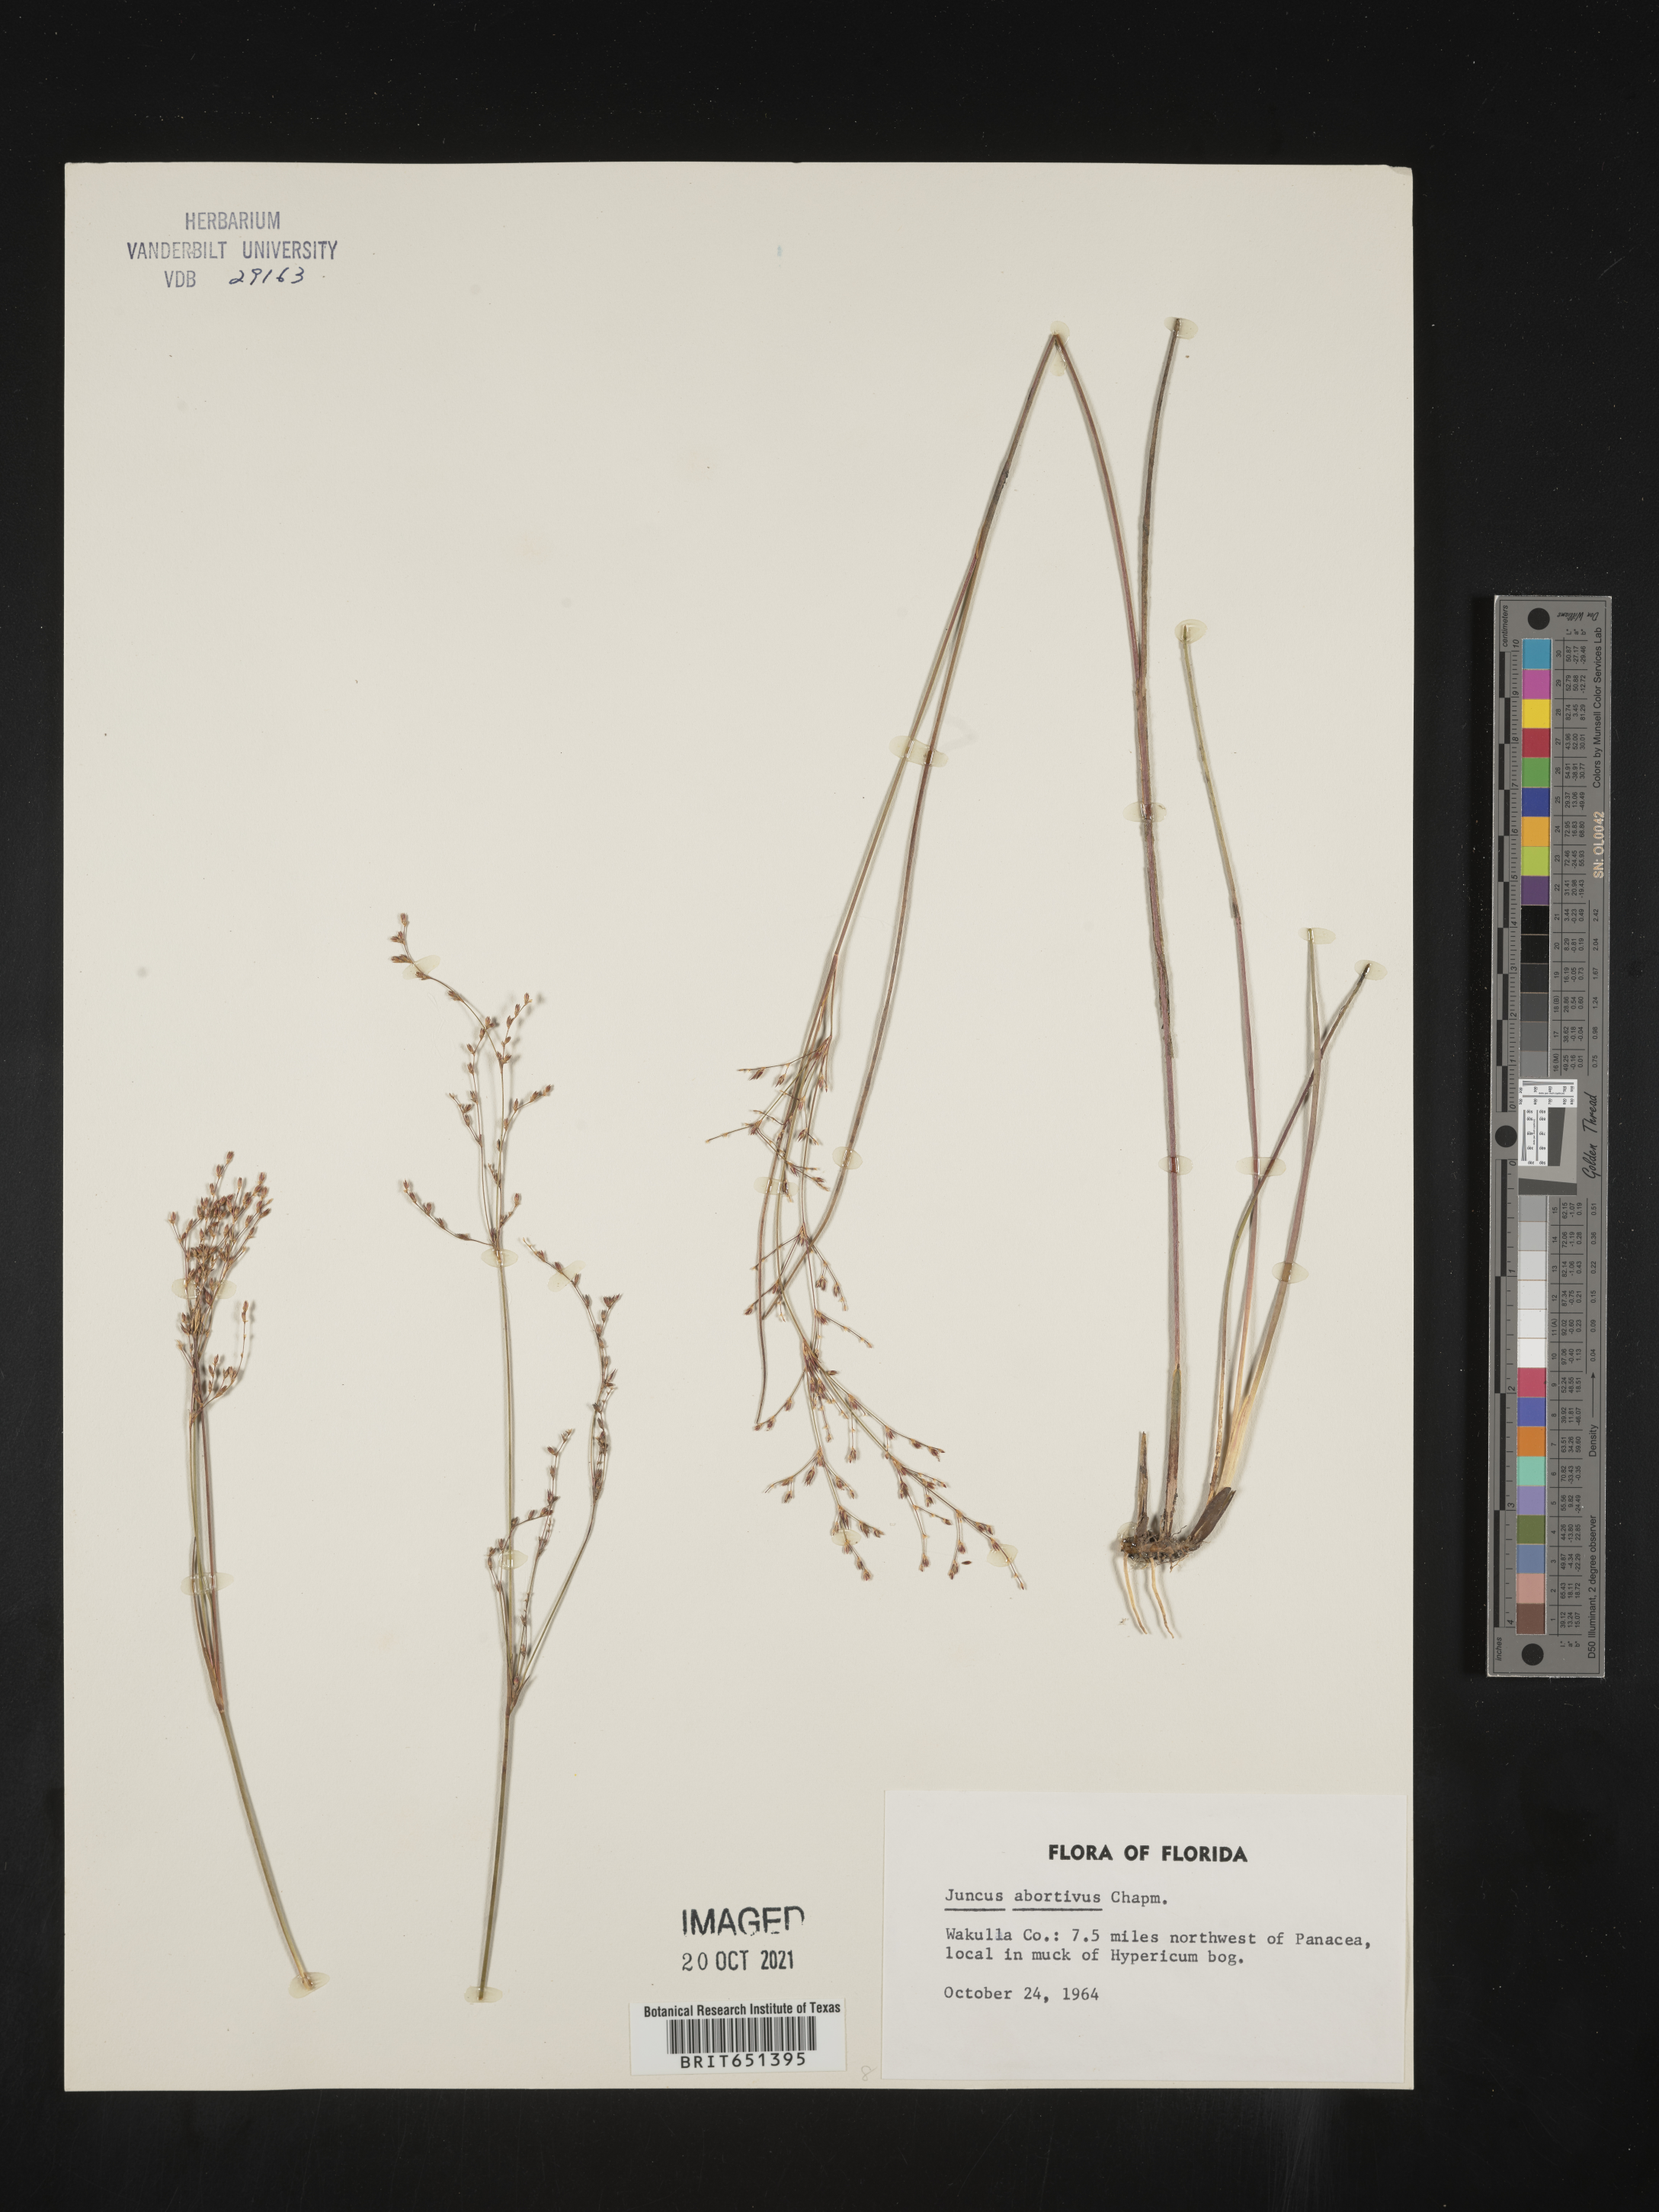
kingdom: Plantae
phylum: Tracheophyta
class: Liliopsida
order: Poales
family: Juncaceae
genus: Juncus
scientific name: Juncus abortivus
